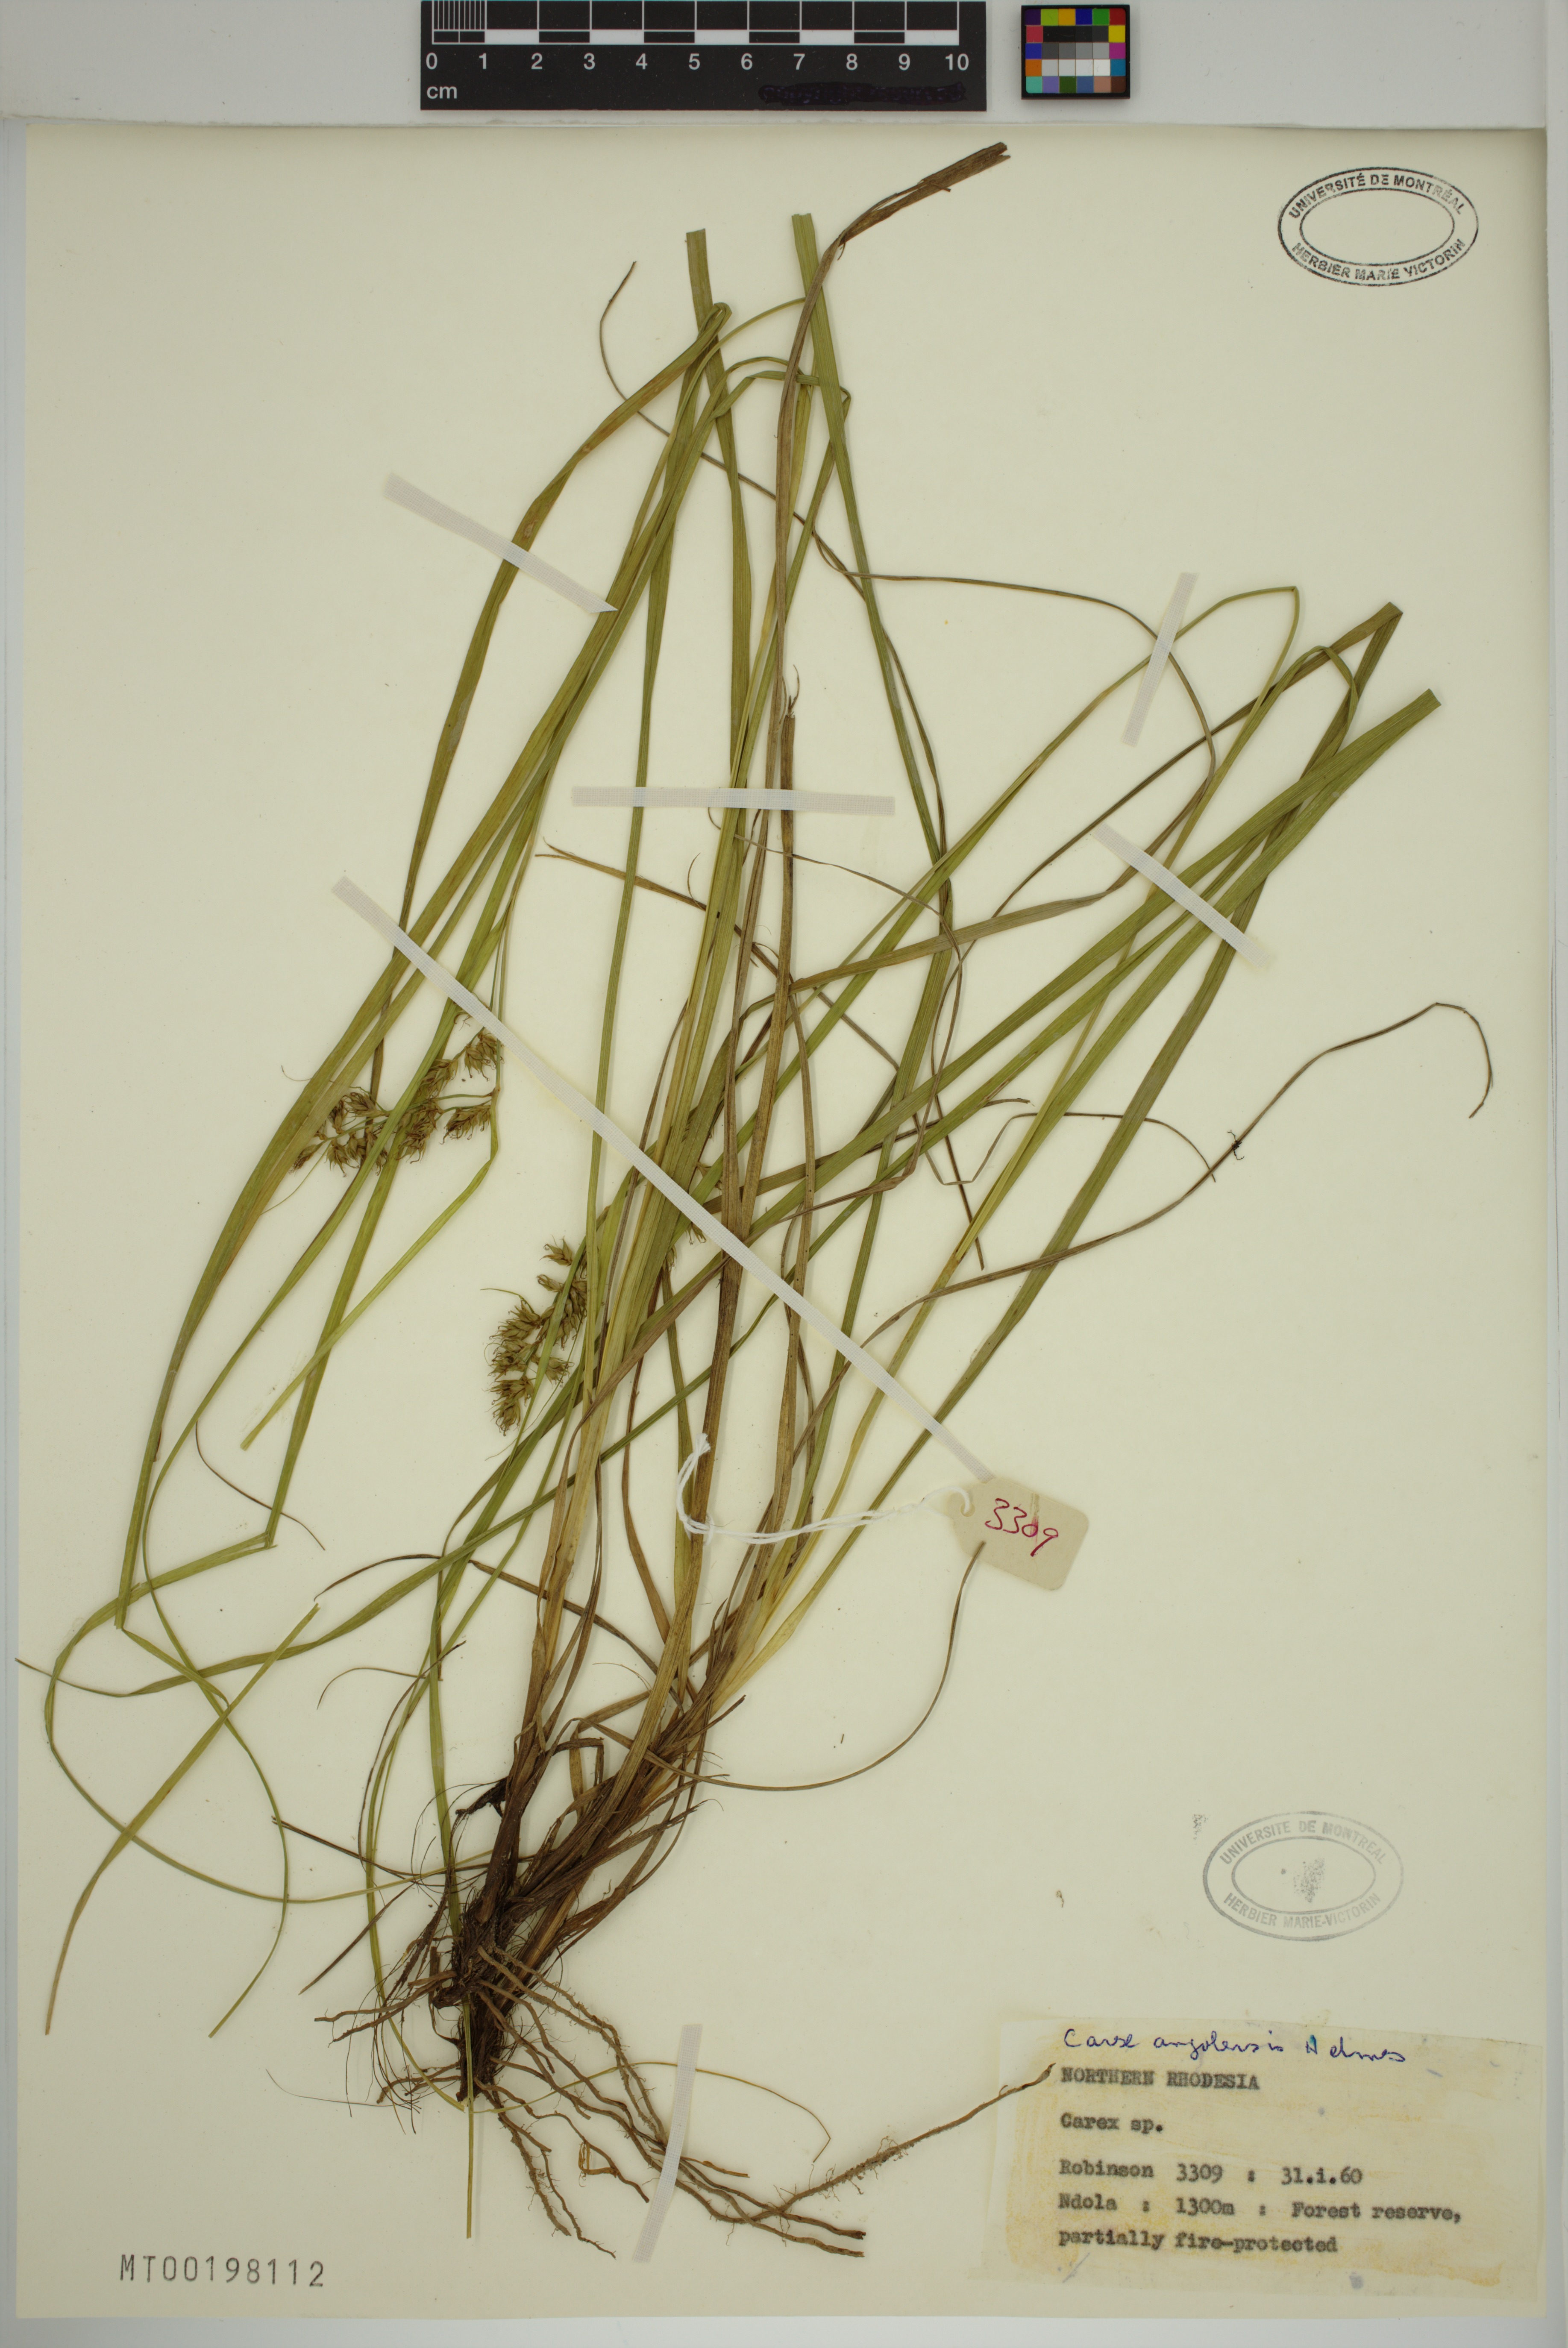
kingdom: Plantae
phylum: Tracheophyta
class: Liliopsida
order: Poales
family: Cyperaceae
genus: Carex
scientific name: Carex angolensis
